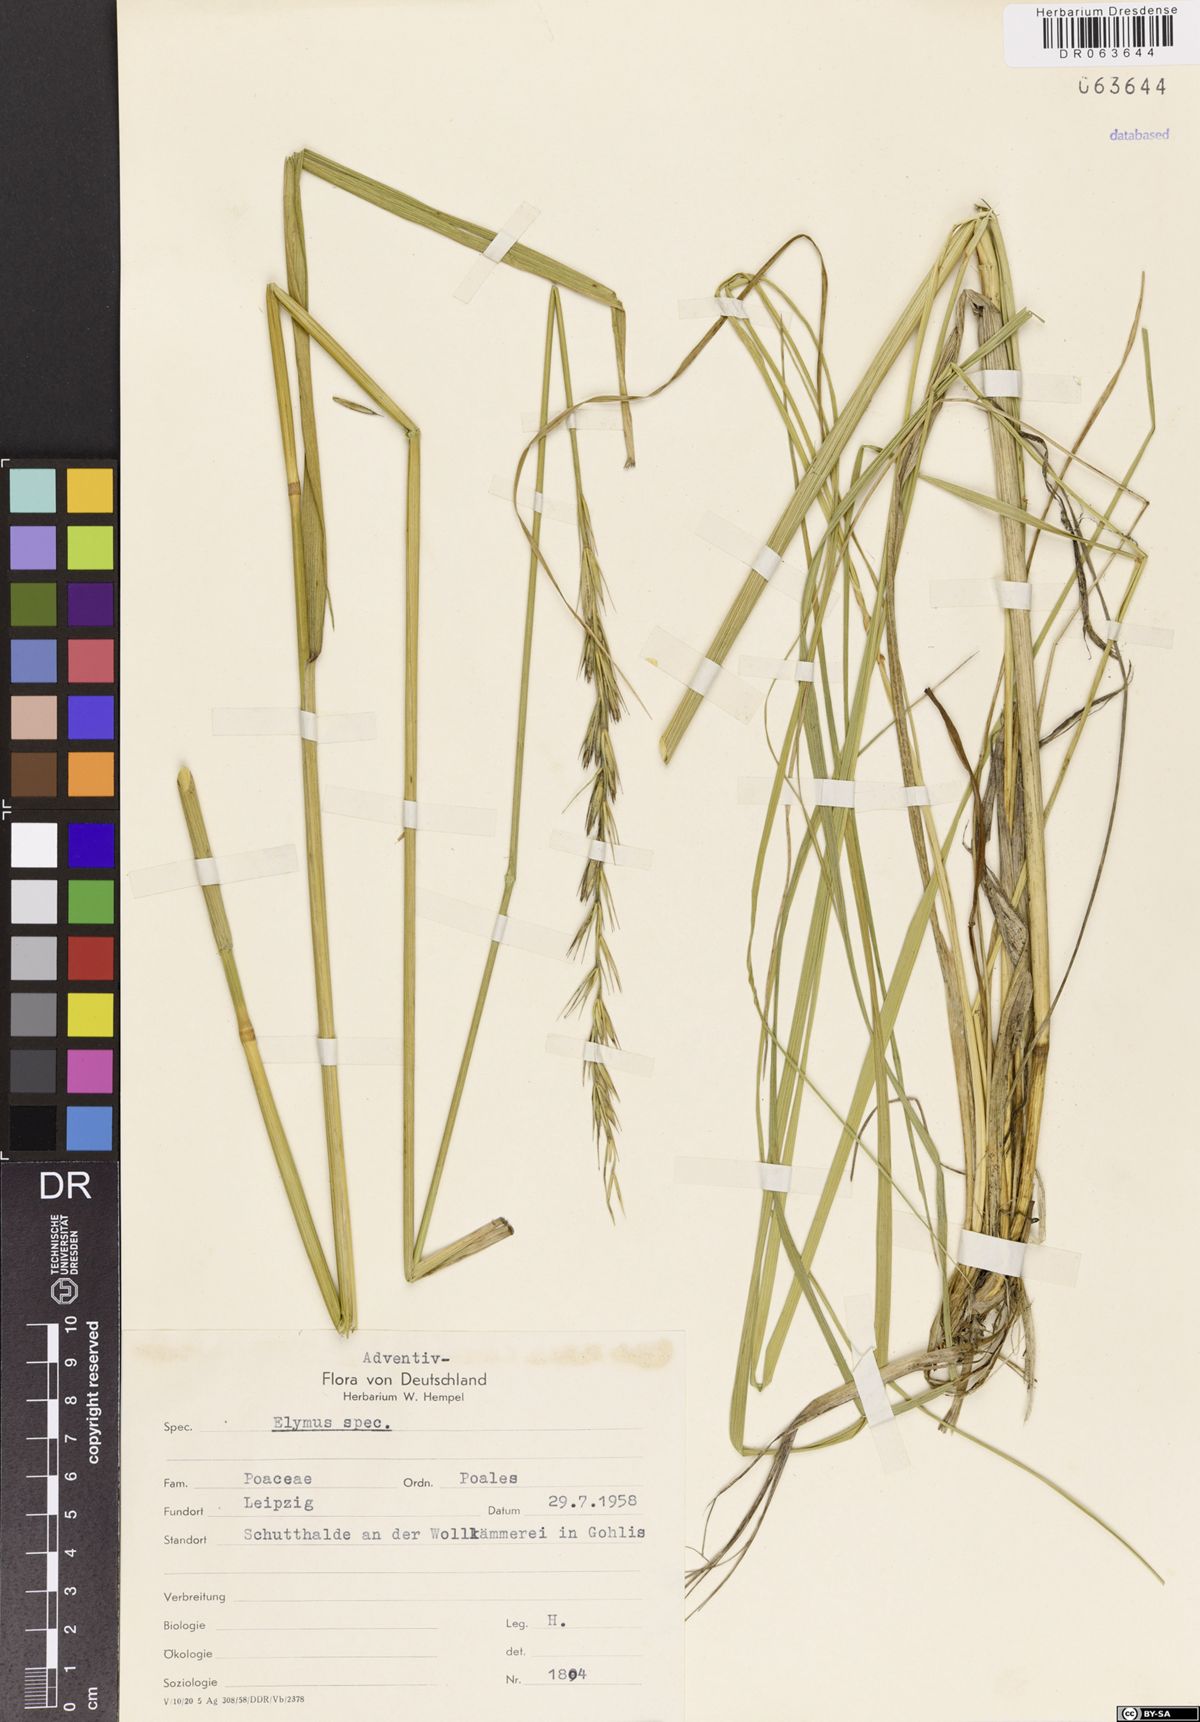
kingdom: Plantae
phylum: Tracheophyta
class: Liliopsida
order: Poales
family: Poaceae
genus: Elymus
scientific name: Elymus
